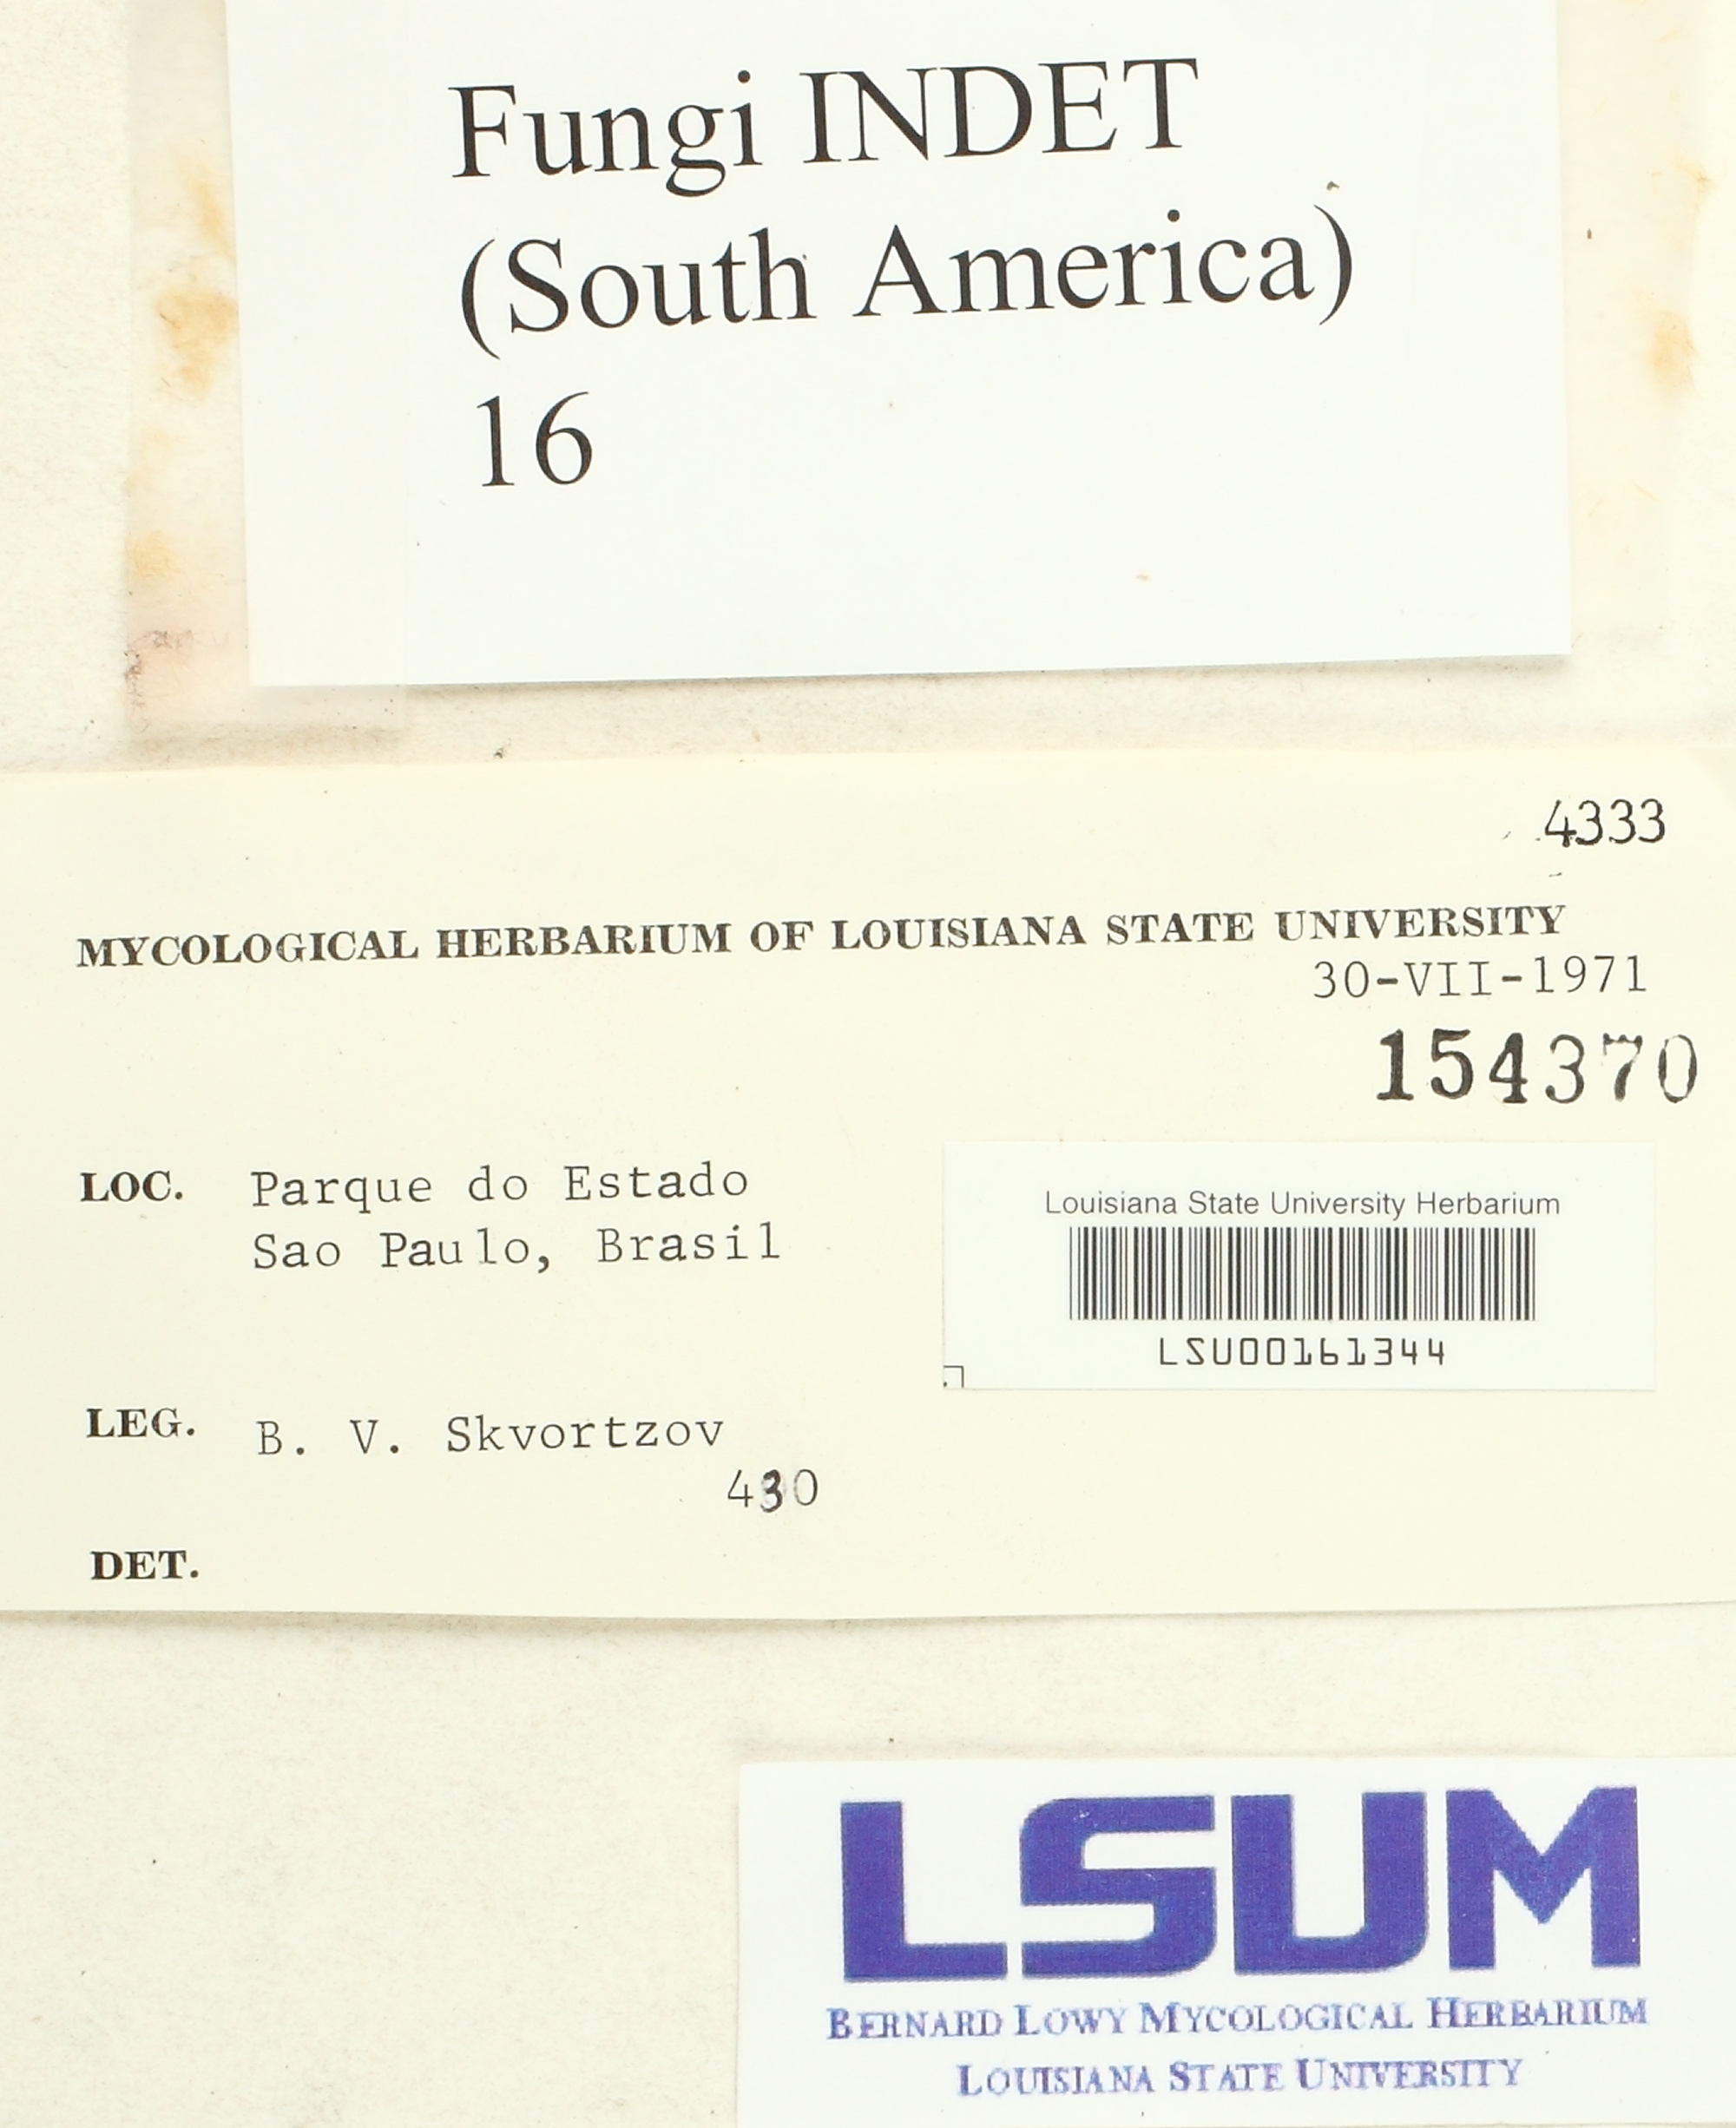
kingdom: Fungi
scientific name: Fungi
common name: Fungi
